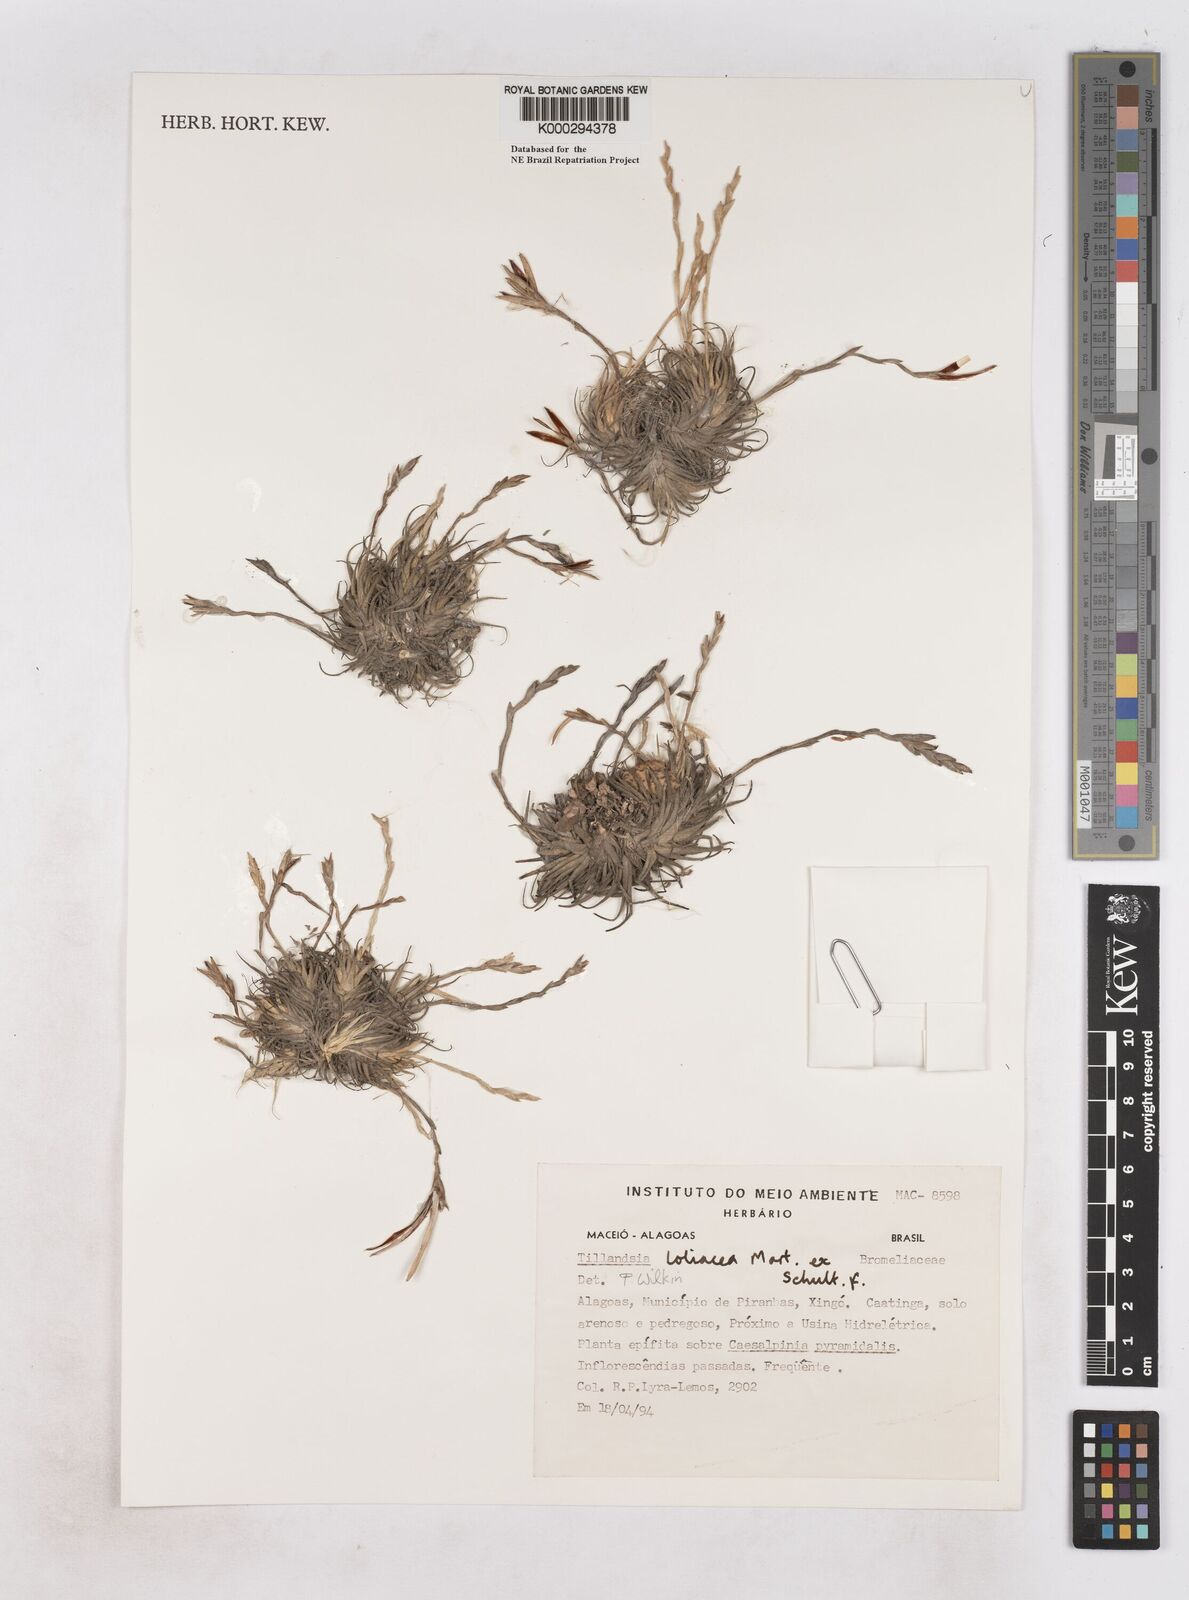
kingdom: Plantae
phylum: Tracheophyta
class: Liliopsida
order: Poales
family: Bromeliaceae
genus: Tillandsia
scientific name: Tillandsia loliacea
